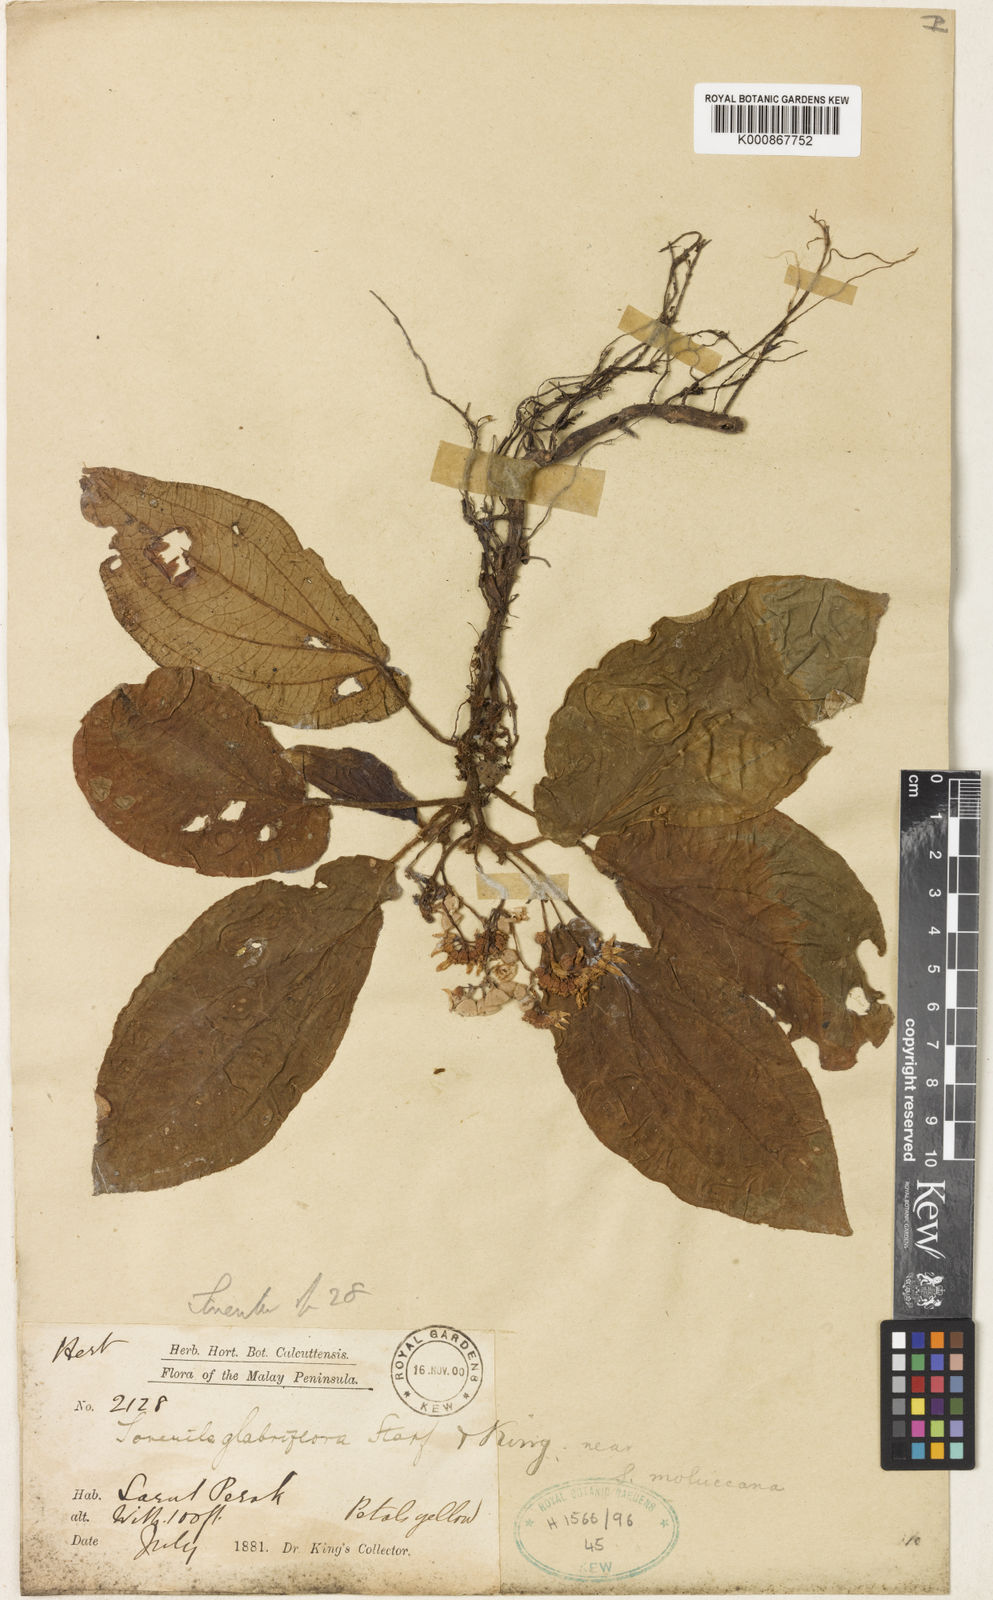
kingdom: Plantae
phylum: Tracheophyta
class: Magnoliopsida
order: Myrtales
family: Melastomataceae
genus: Sonerila
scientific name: Sonerila glabriflora
